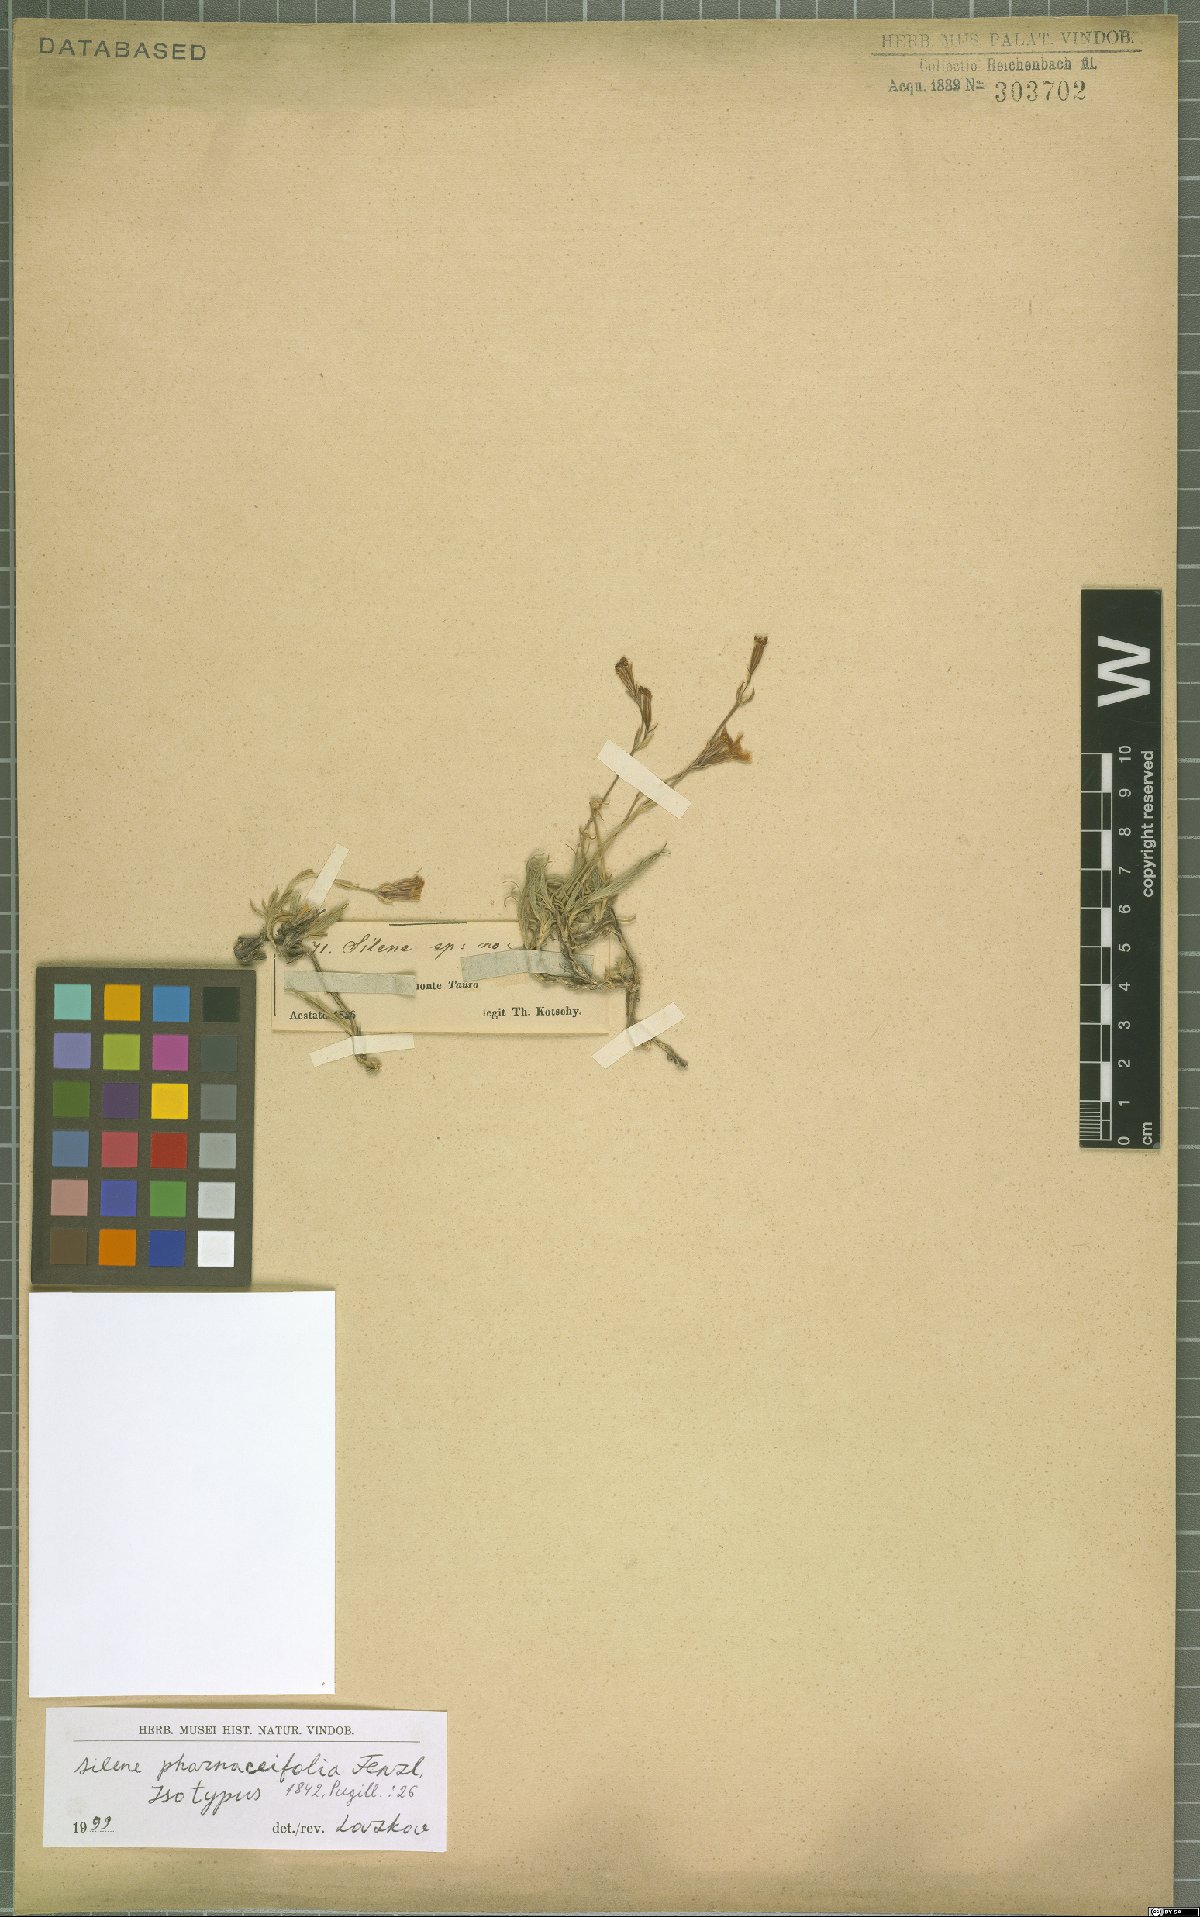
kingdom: Plantae
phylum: Tracheophyta
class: Magnoliopsida
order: Caryophyllales
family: Caryophyllaceae
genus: Silene
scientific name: Silene pharnaceifolia
